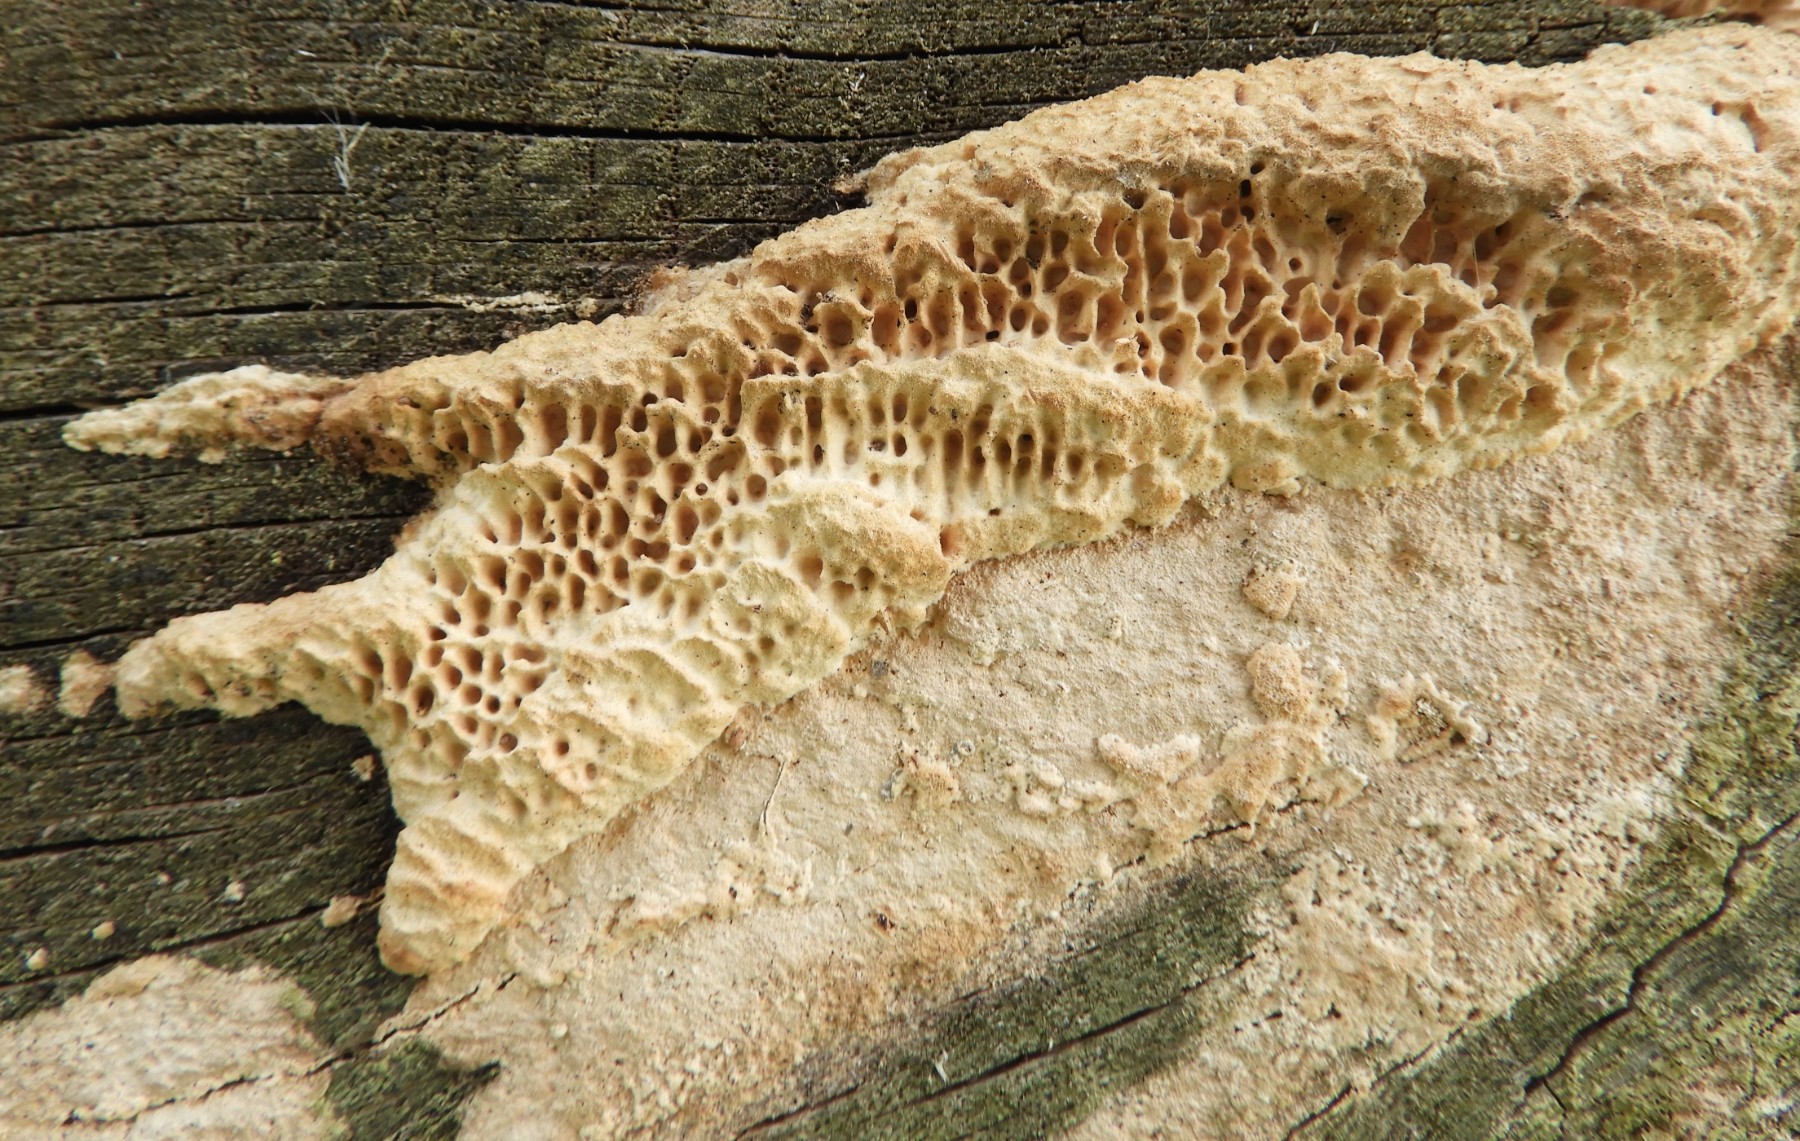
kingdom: Fungi
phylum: Basidiomycota
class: Agaricomycetes
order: Polyporales
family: Fomitopsidaceae
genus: Daedalea
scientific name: Daedalea quercina
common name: ege-labyrintsvamp
